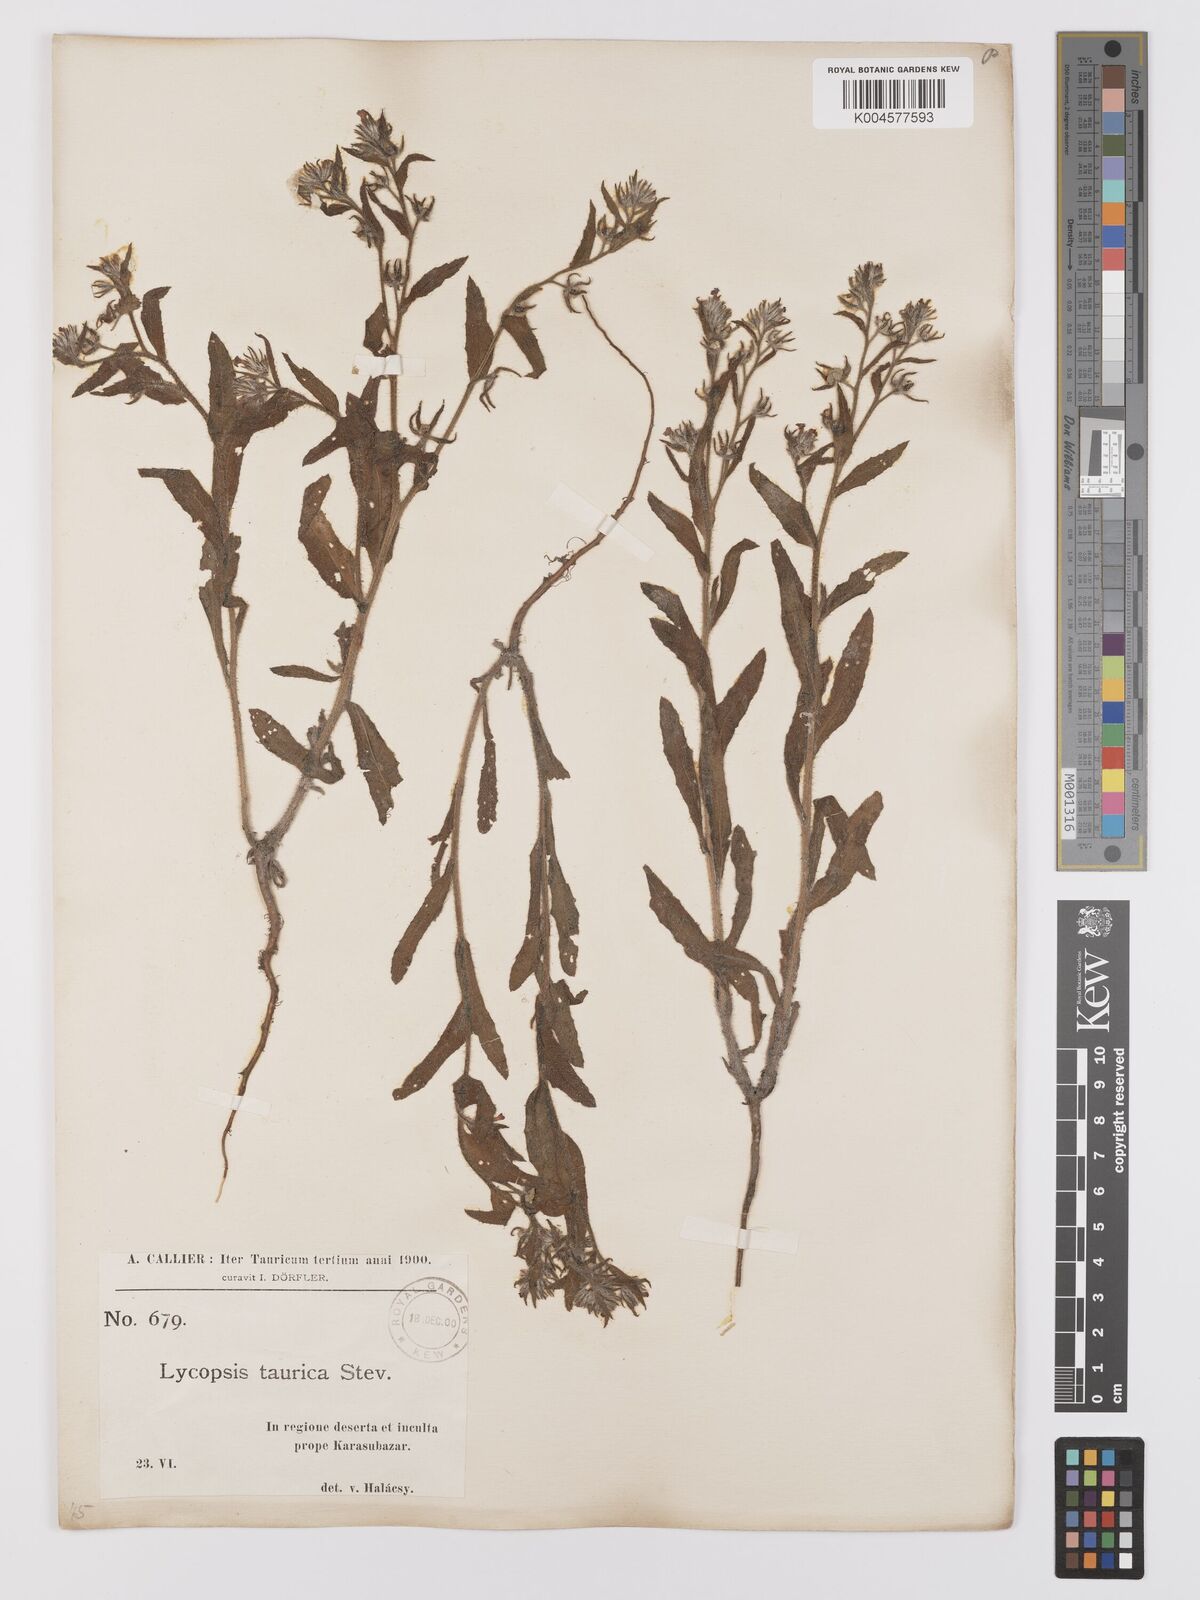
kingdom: Plantae
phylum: Tracheophyta
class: Magnoliopsida
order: Boraginales
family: Boraginaceae
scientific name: Boraginaceae
